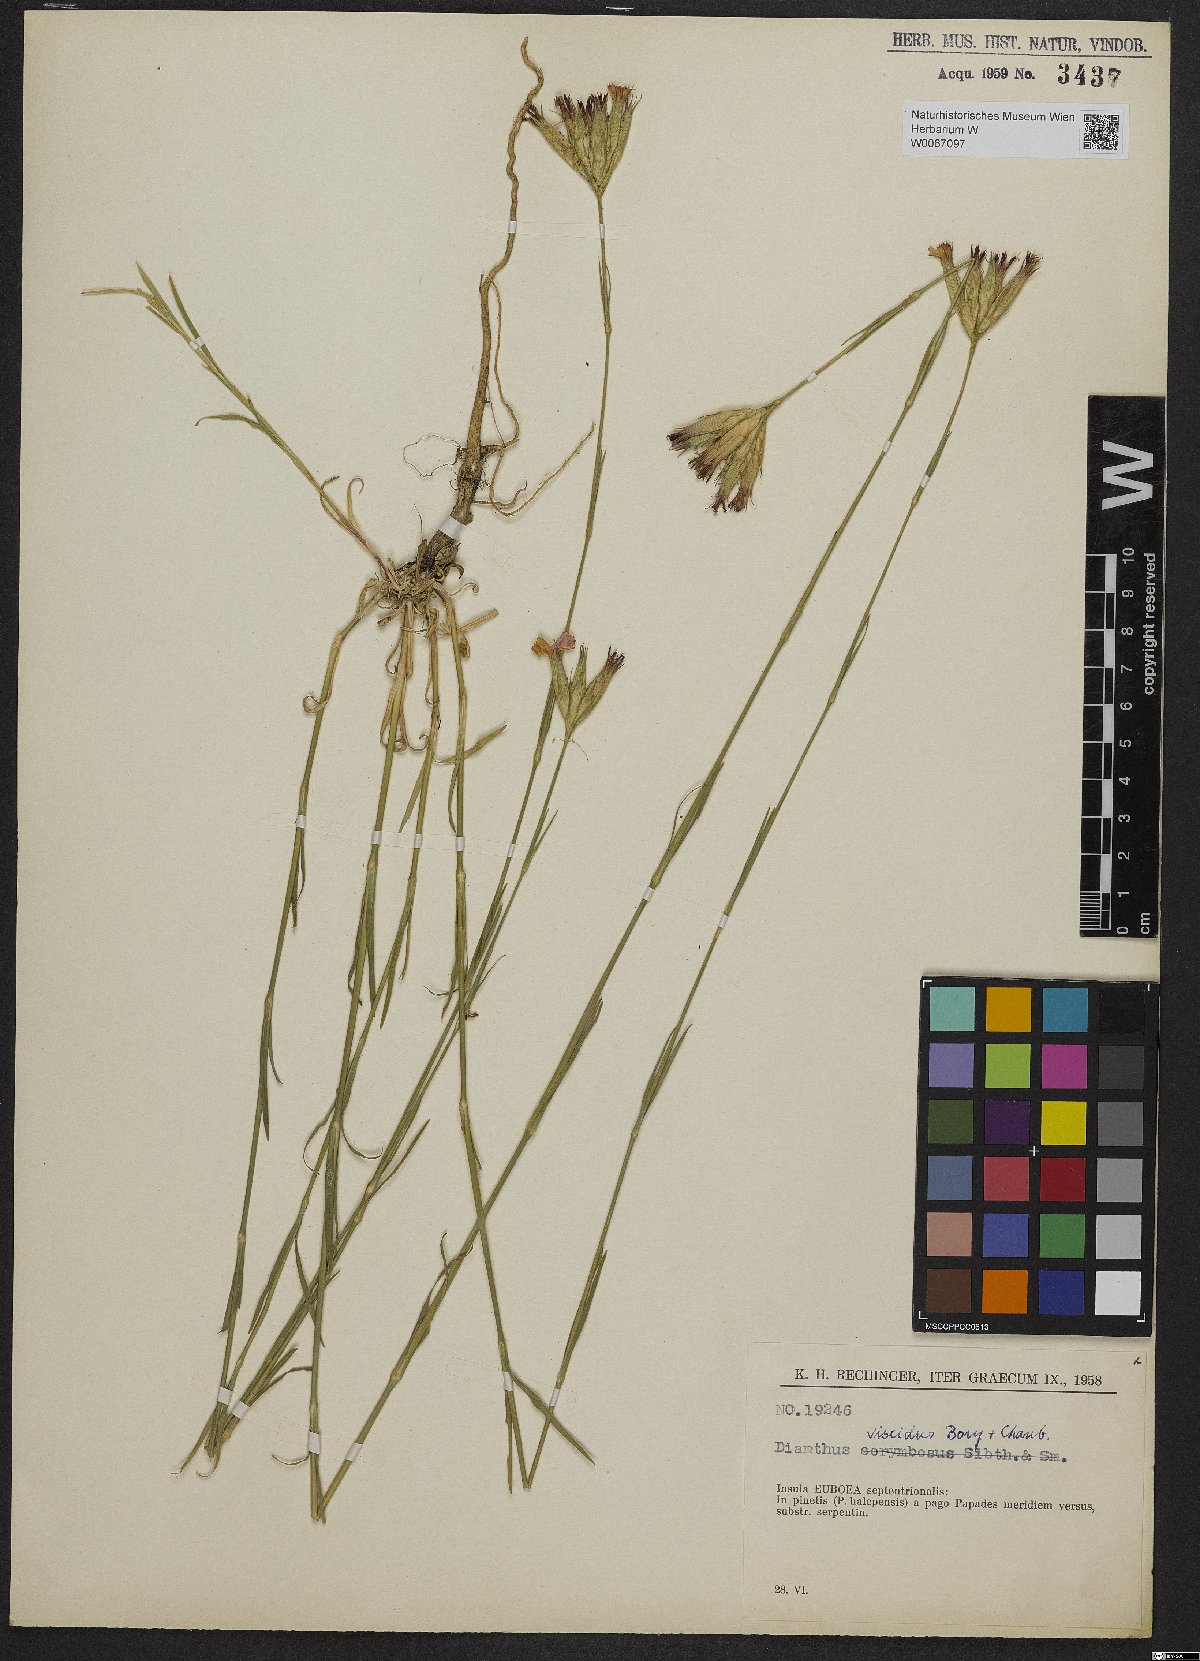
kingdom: Plantae
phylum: Tracheophyta
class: Magnoliopsida
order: Caryophyllales
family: Caryophyllaceae
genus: Dianthus
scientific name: Dianthus viscidus
